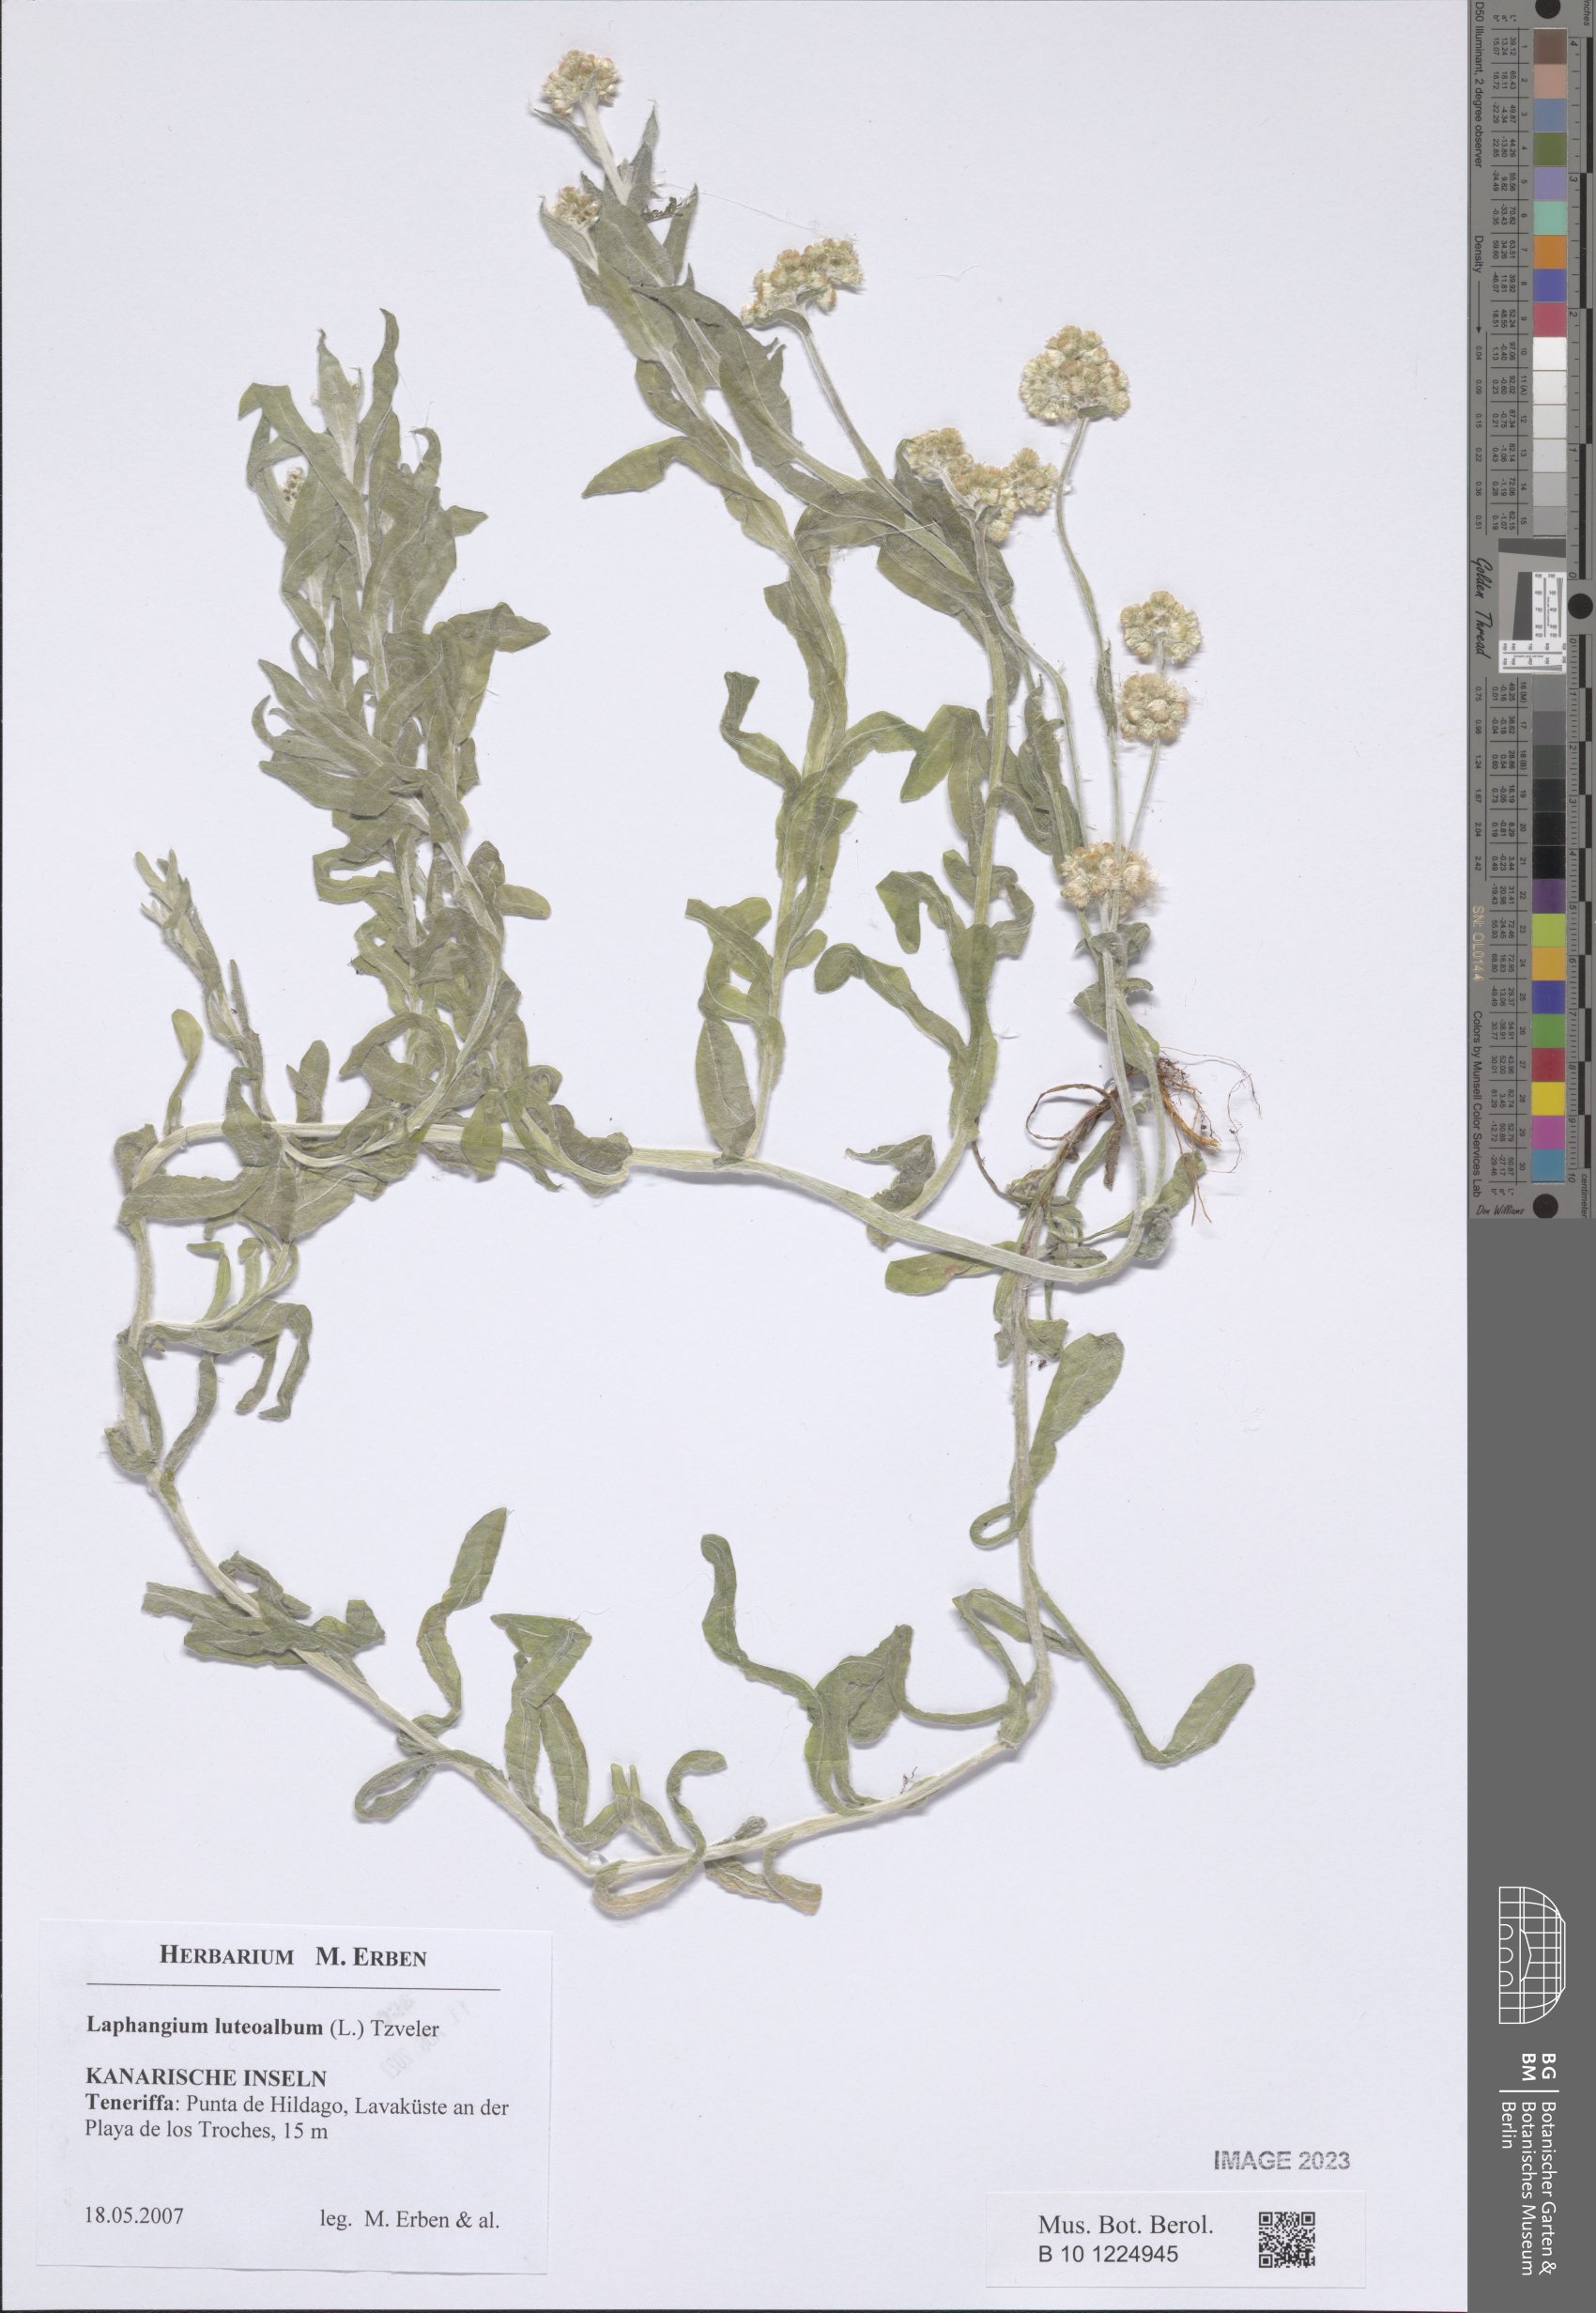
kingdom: Plantae
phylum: Tracheophyta
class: Magnoliopsida
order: Asterales
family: Asteraceae
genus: Helichrysum
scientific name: Helichrysum luteoalbum
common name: Daisy
